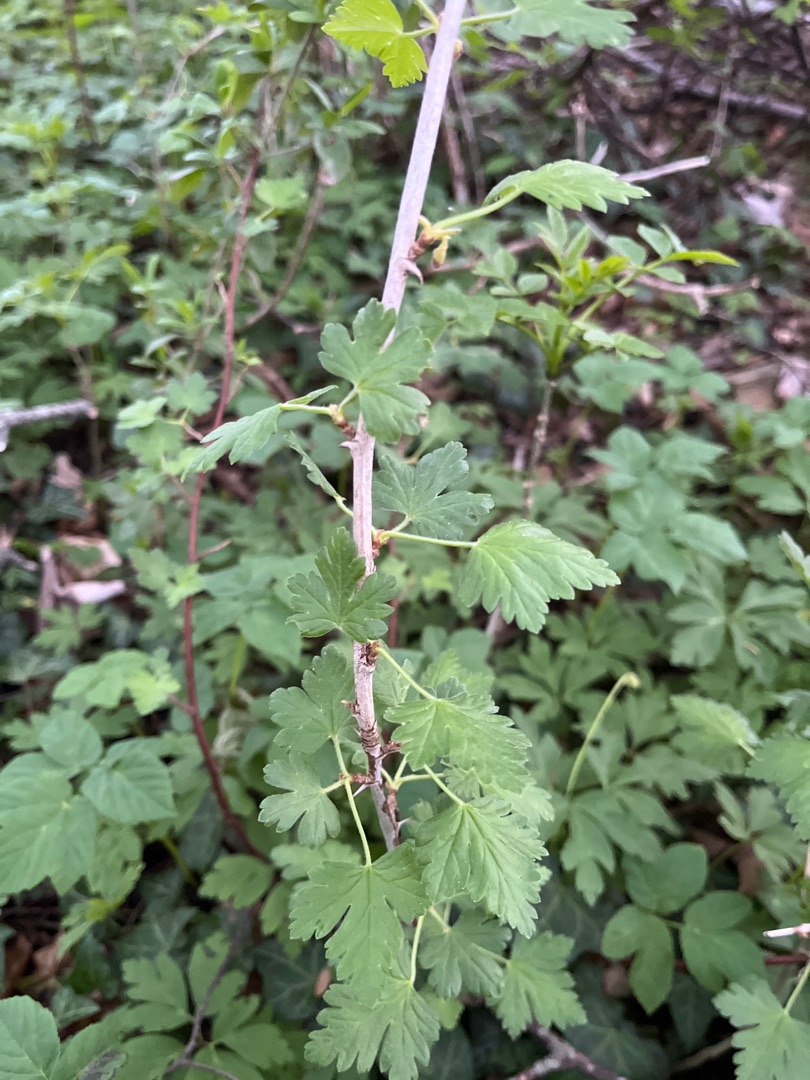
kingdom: Plantae
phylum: Tracheophyta
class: Magnoliopsida
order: Saxifragales
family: Grossulariaceae
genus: Ribes
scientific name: Ribes uva-crispa
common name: Stikkelsbær
